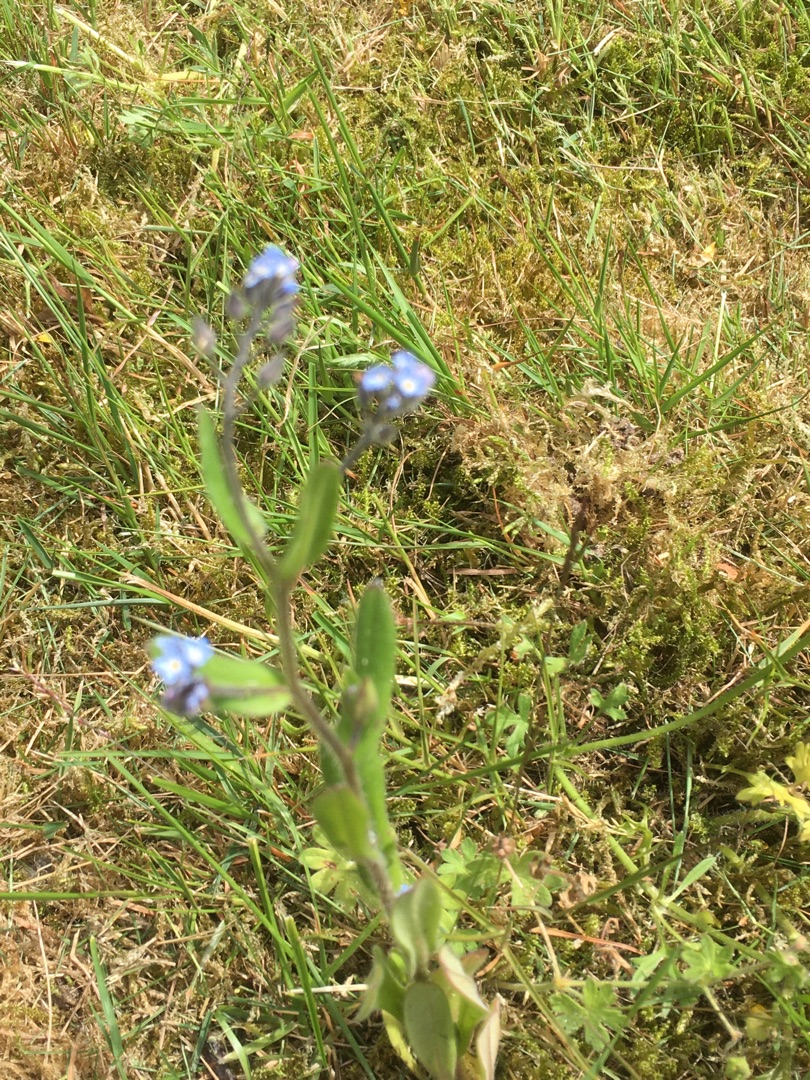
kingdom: Plantae
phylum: Tracheophyta
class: Magnoliopsida
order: Boraginales
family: Boraginaceae
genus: Myosotis
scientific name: Myosotis arvensis
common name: Mark-forglemmigej
